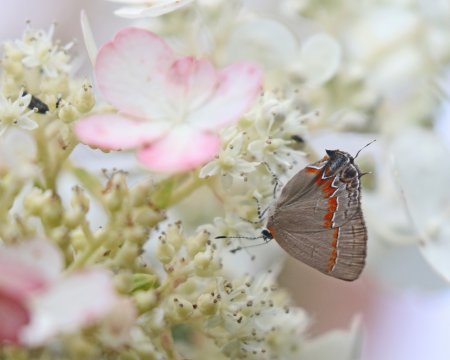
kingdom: Animalia
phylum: Arthropoda
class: Insecta
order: Lepidoptera
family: Lycaenidae
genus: Calycopis
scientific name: Calycopis cecrops
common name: Red-banded Hairstreak
